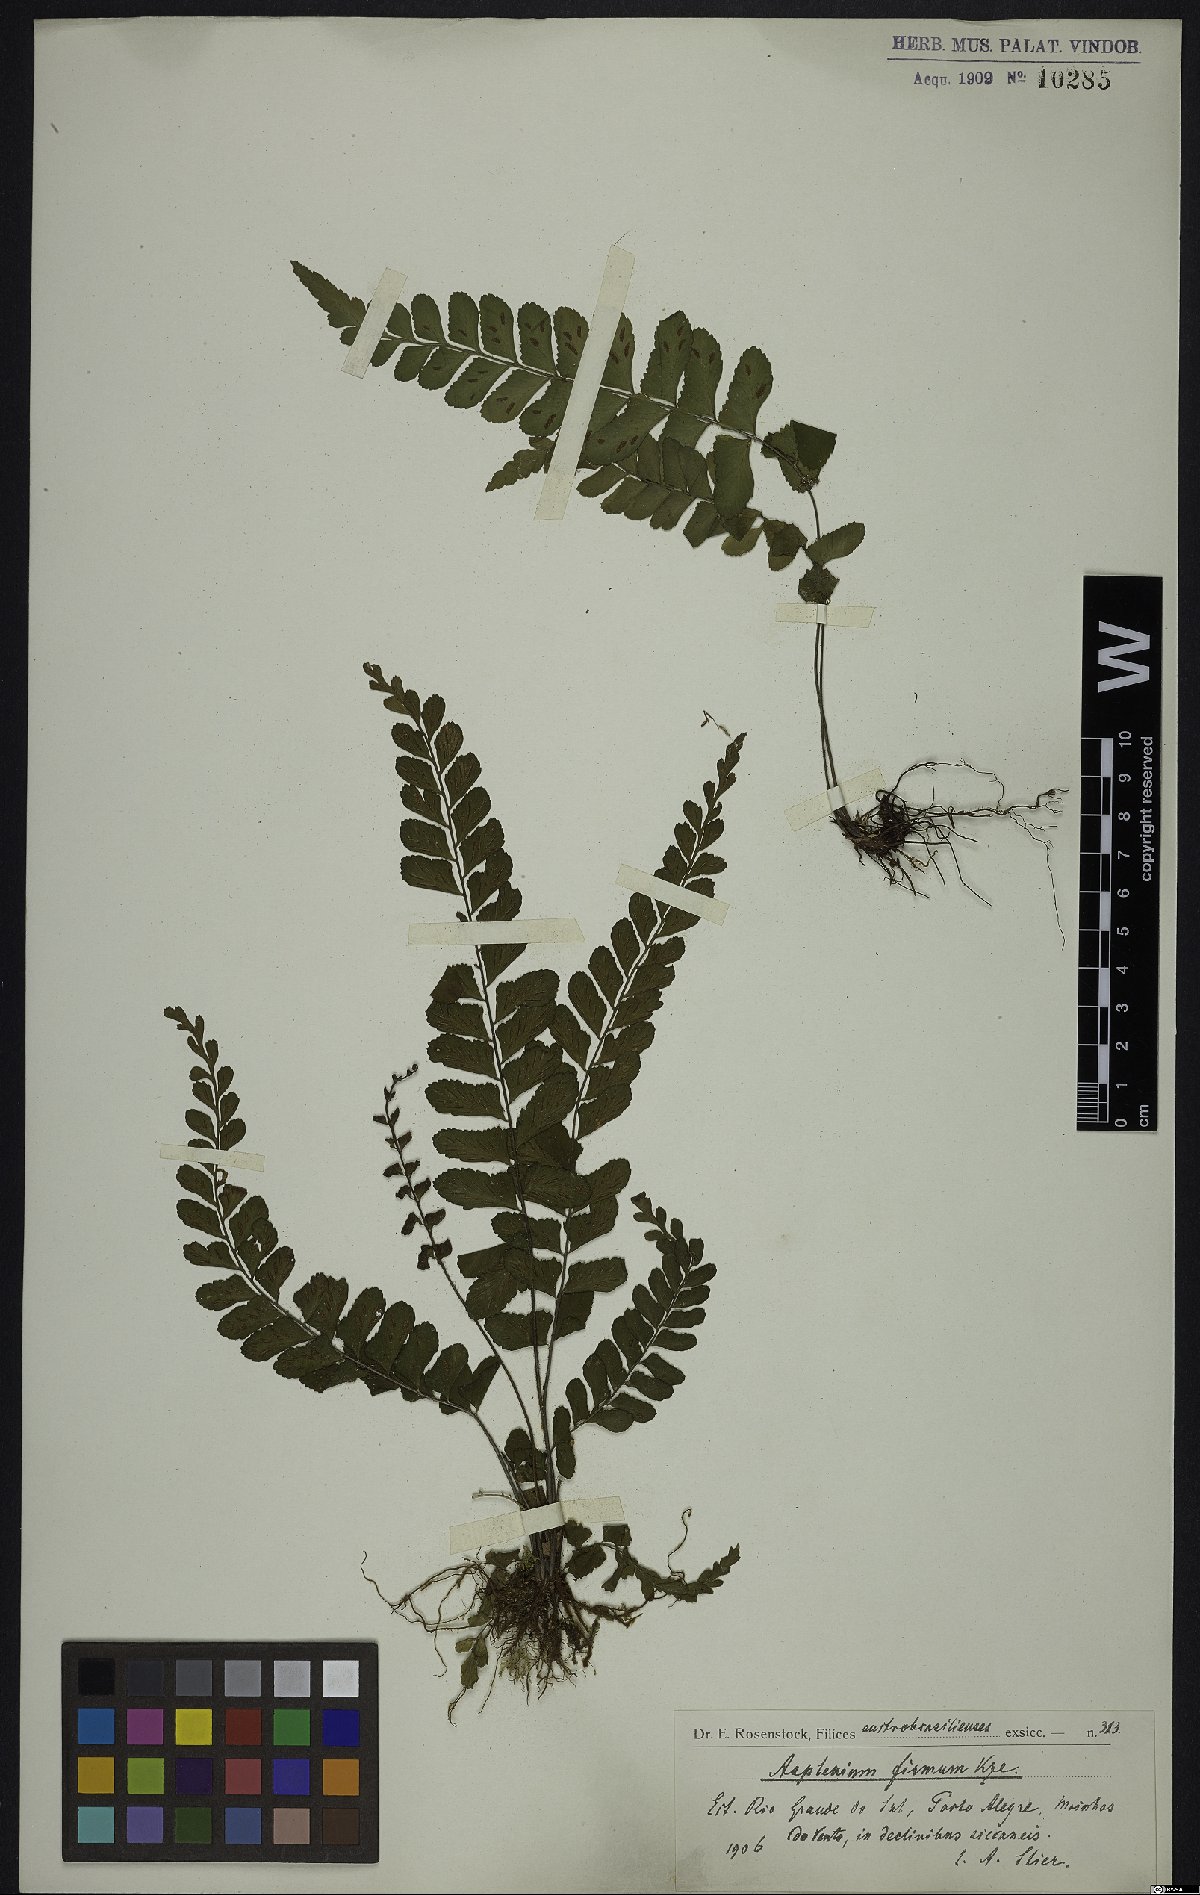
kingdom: Plantae
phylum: Tracheophyta
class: Polypodiopsida
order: Polypodiales
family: Aspleniaceae
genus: Asplenium
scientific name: Asplenium abscissum
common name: Cutleaf spleenwort
